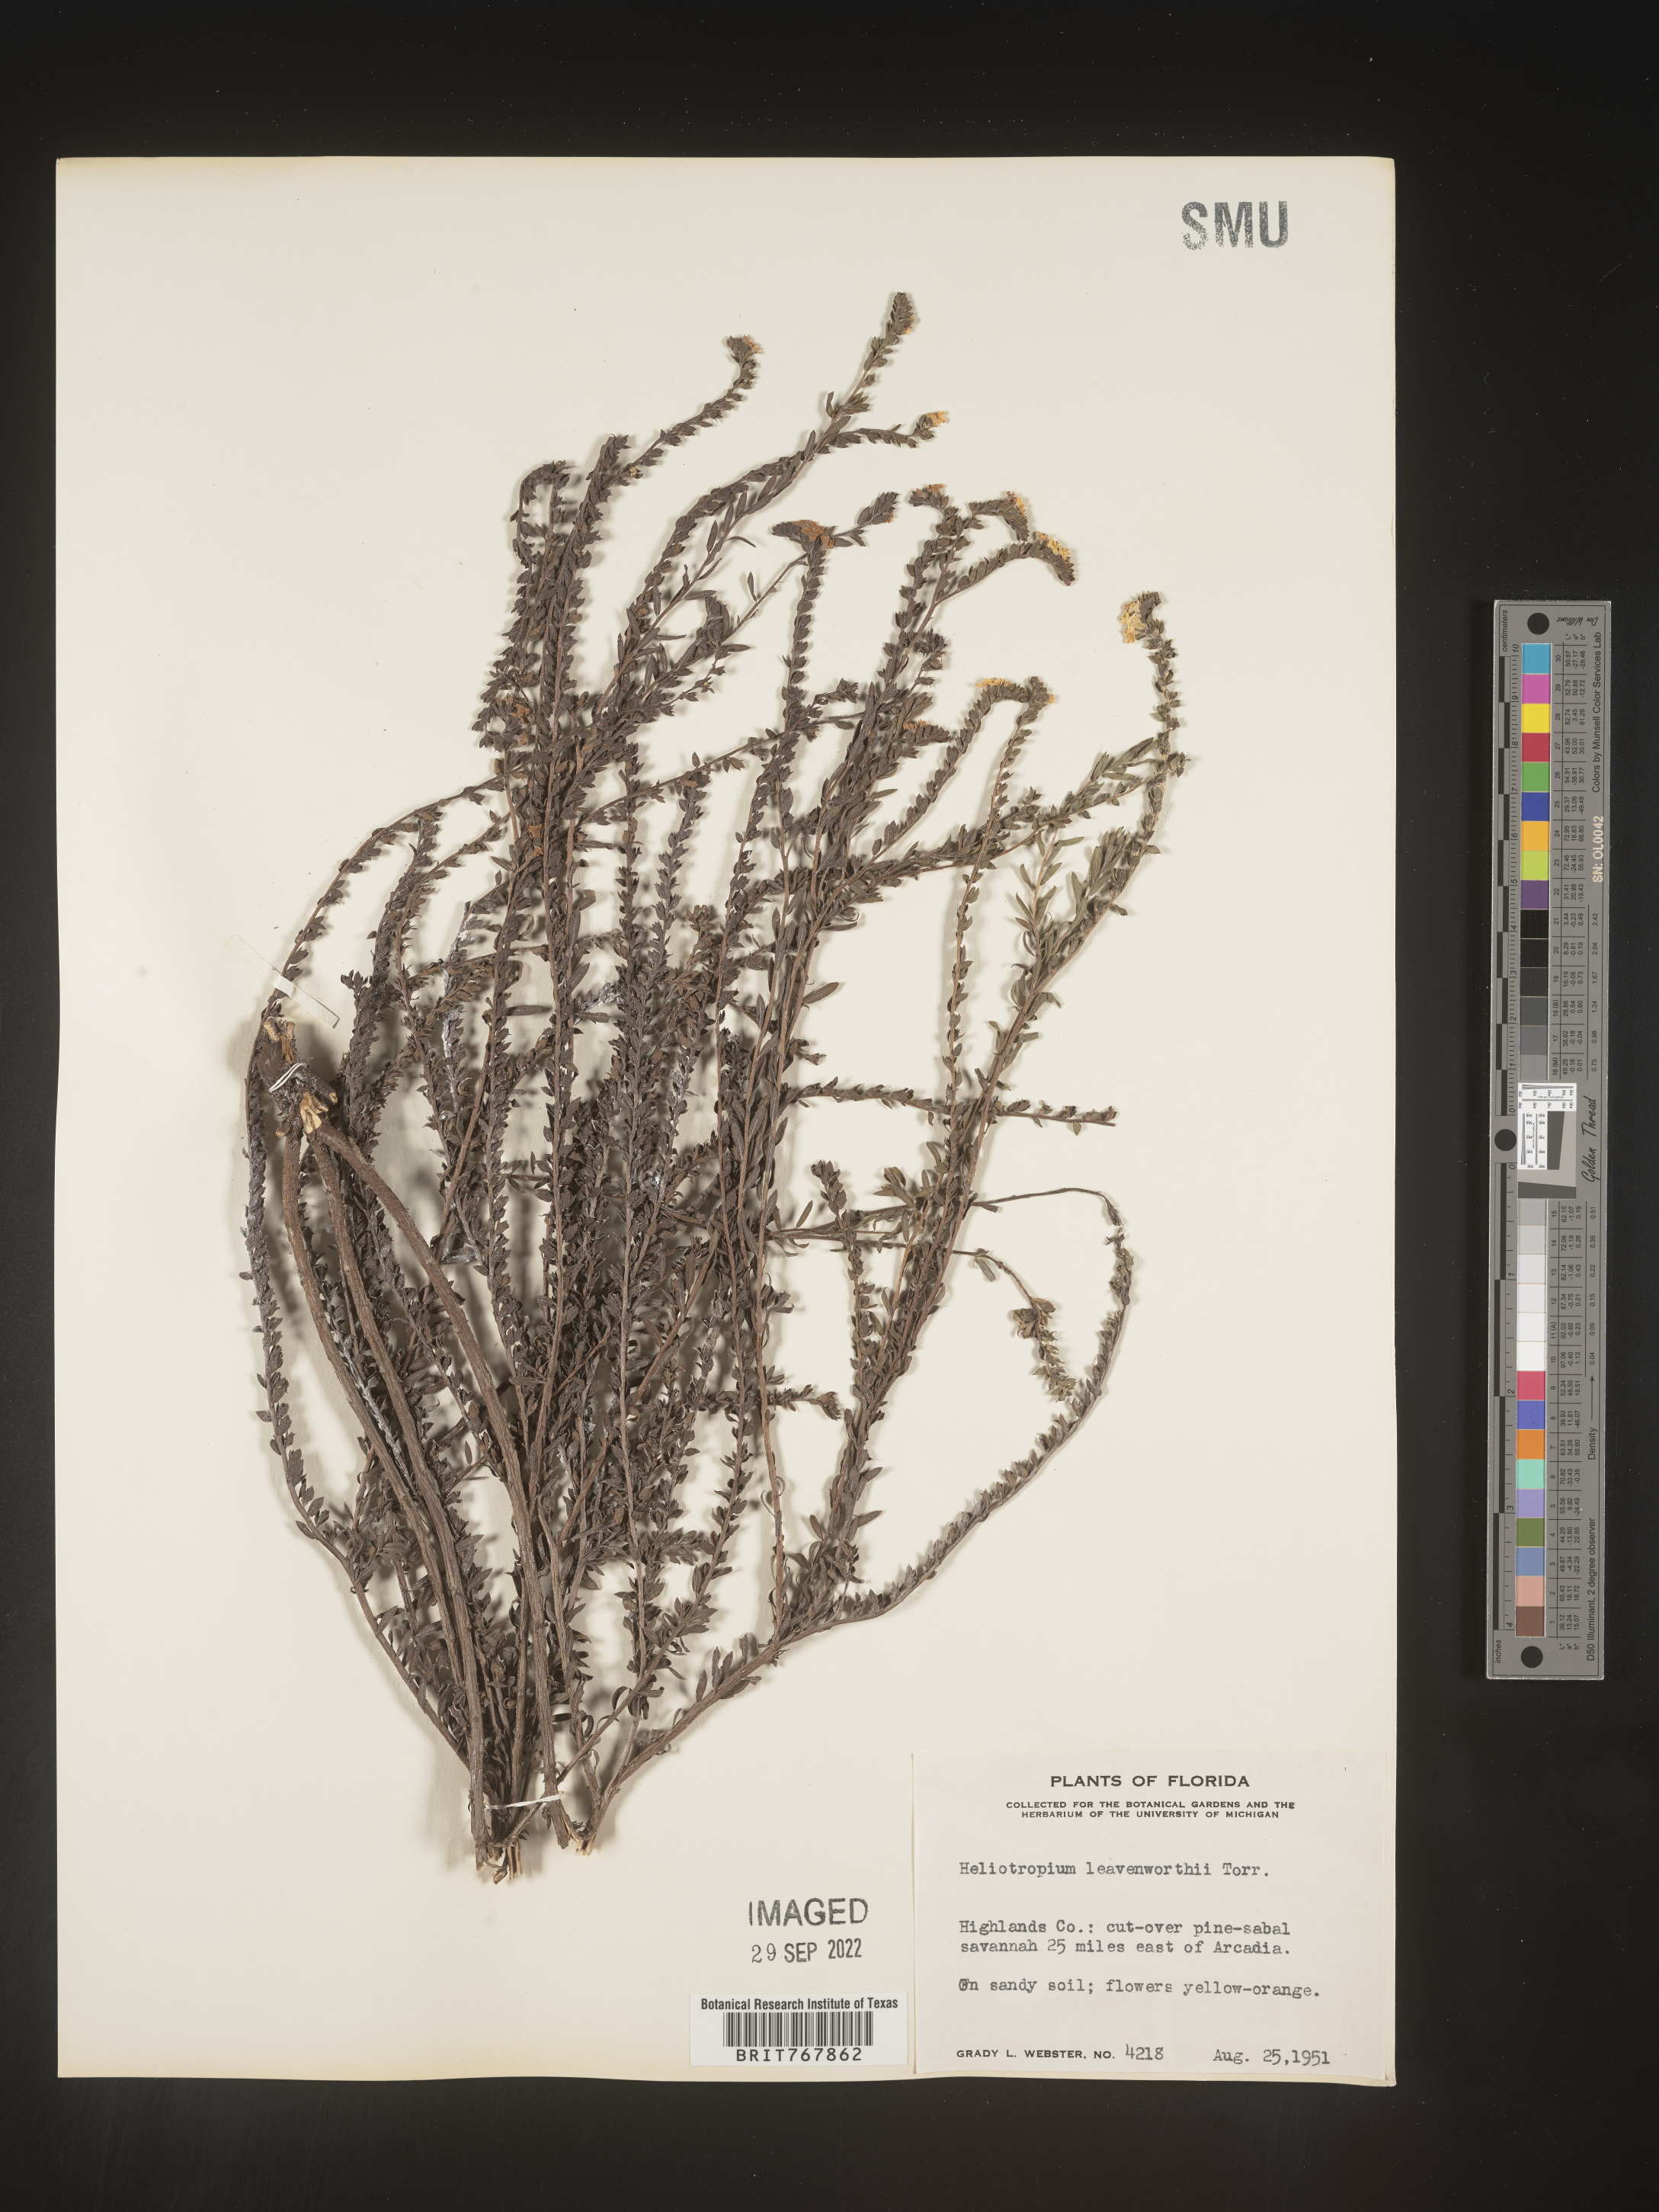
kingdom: Plantae
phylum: Tracheophyta
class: Magnoliopsida
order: Boraginales
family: Heliotropiaceae
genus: Heliotropium
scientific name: Heliotropium leavenworthii
